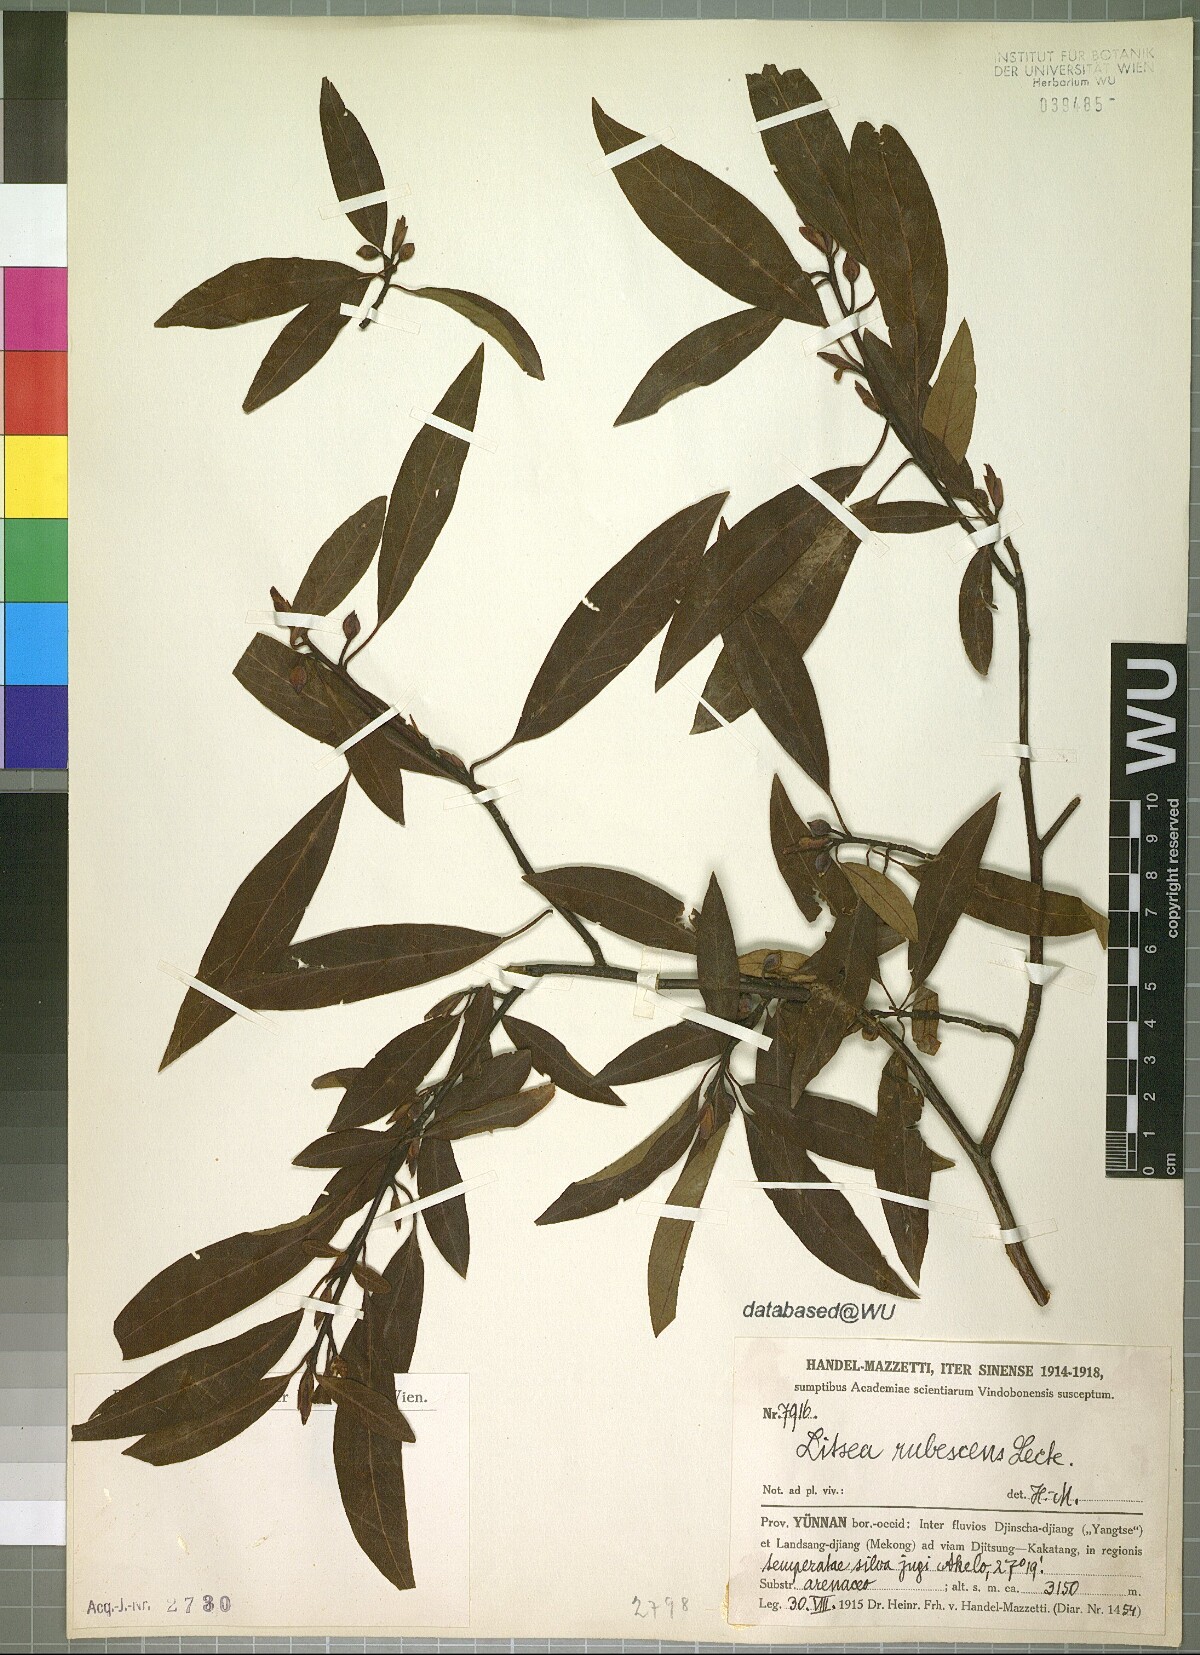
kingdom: Plantae
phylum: Tracheophyta
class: Magnoliopsida
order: Laurales
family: Lauraceae
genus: Litsea
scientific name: Litsea rubescens
